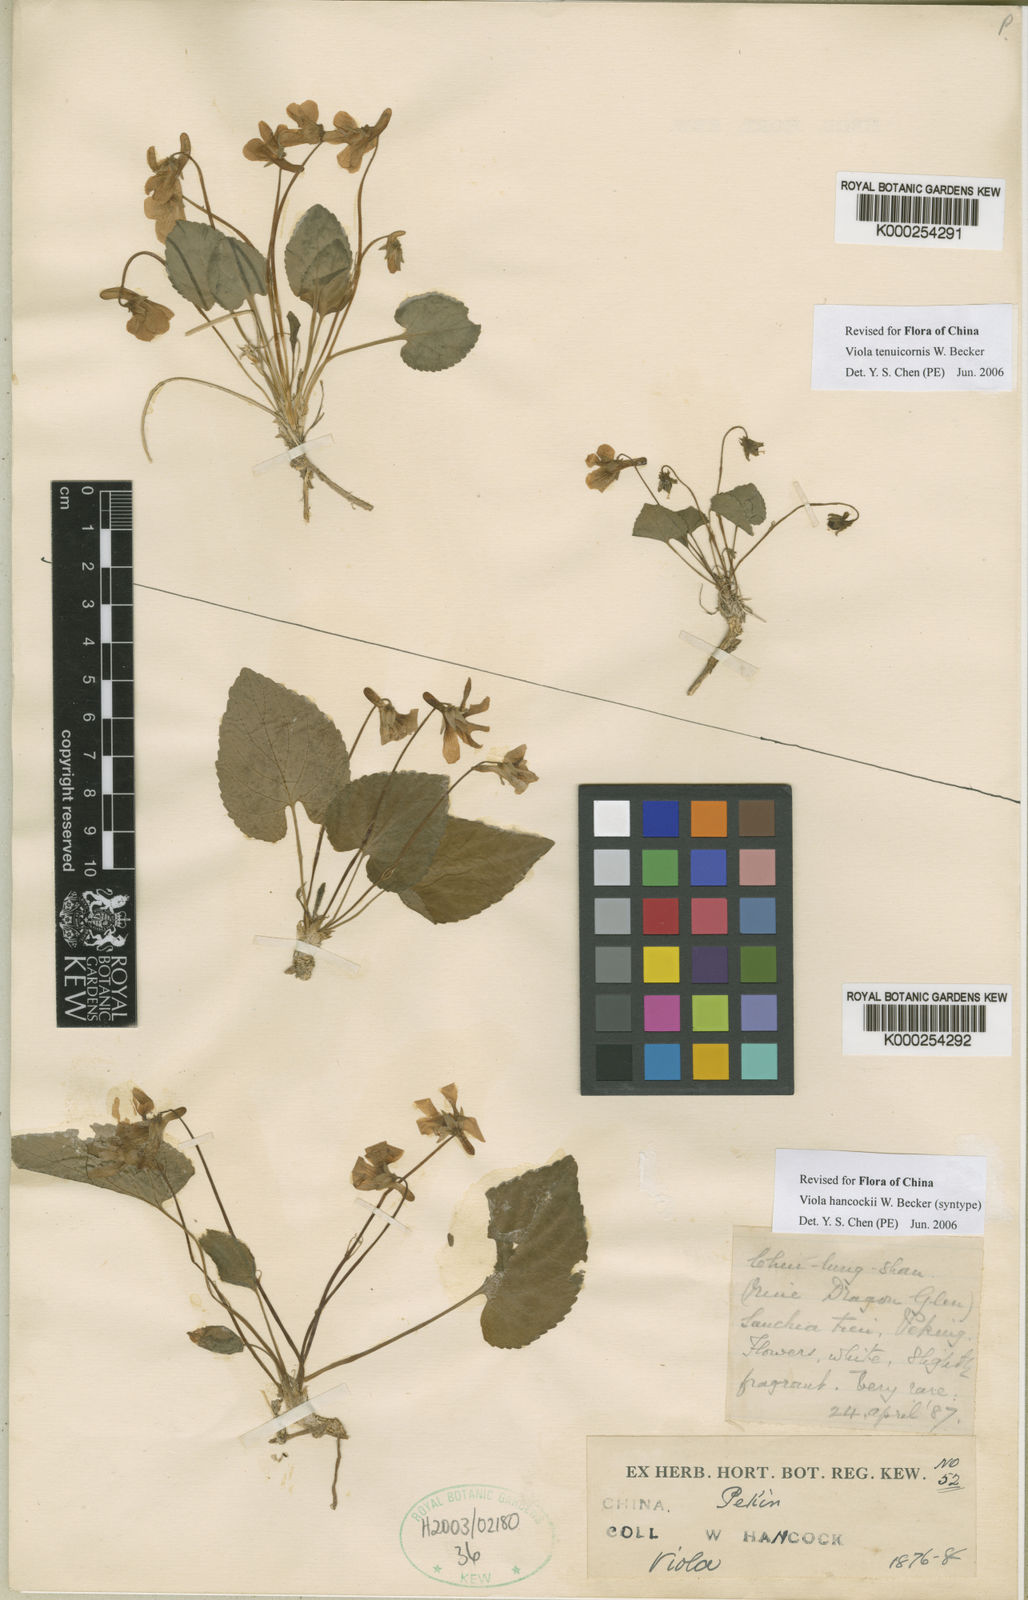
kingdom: Plantae
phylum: Tracheophyta
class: Magnoliopsida
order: Malpighiales
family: Violaceae
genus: Viola
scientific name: Viola hancockii
